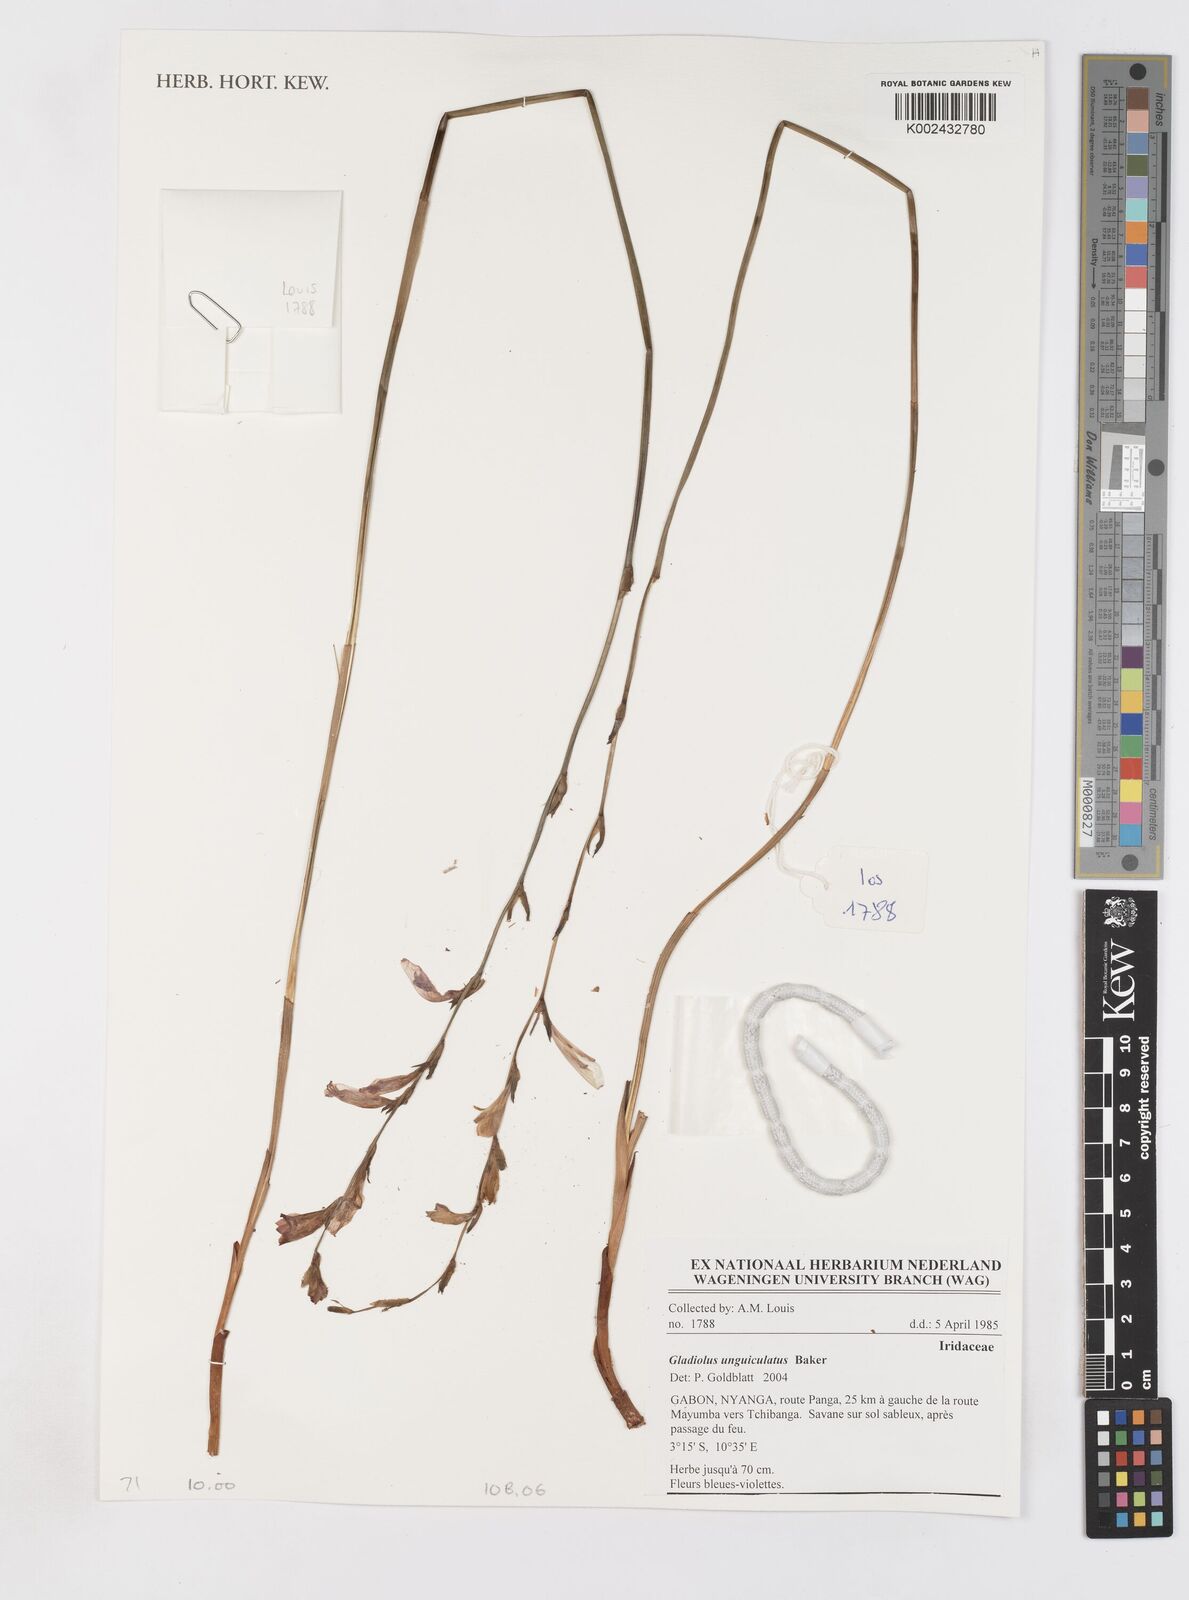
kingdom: Plantae
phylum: Tracheophyta
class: Liliopsida
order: Asparagales
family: Iridaceae
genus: Gladiolus
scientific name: Gladiolus unguiculatus
